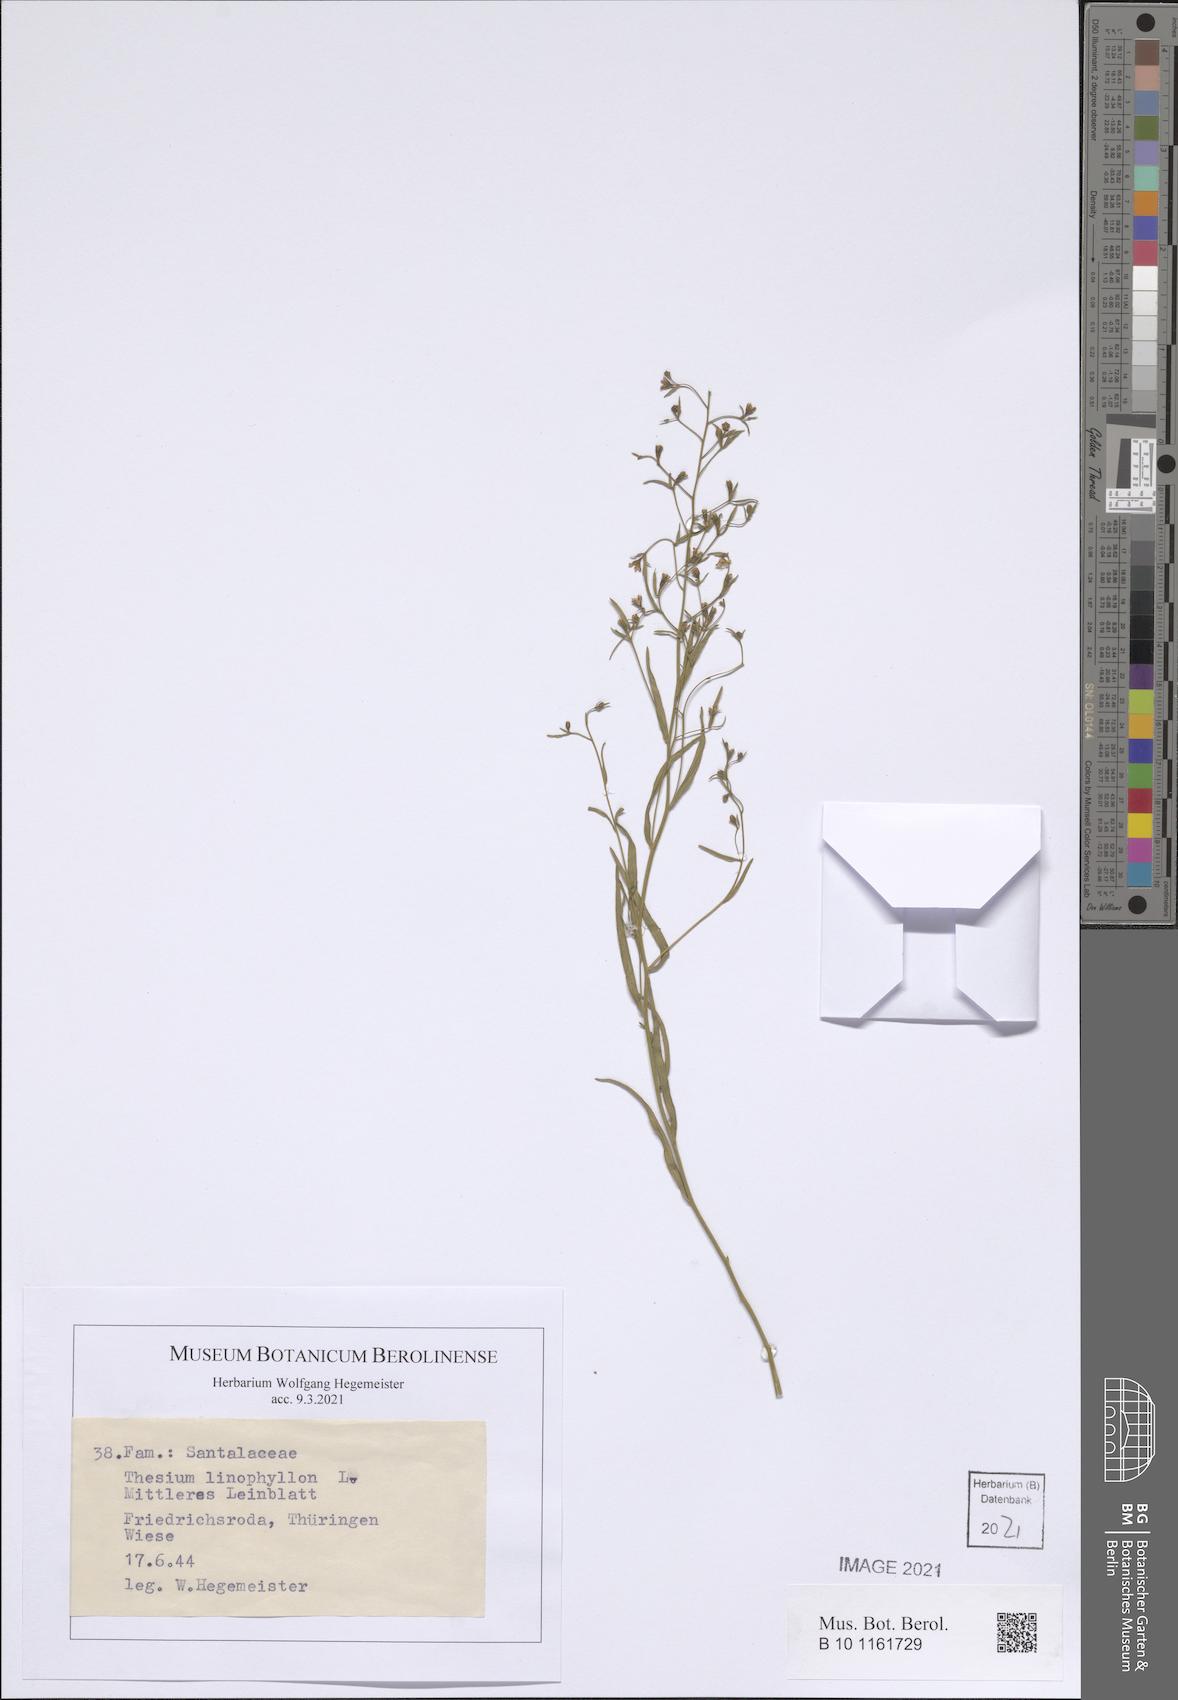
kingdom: Plantae
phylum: Tracheophyta
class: Magnoliopsida
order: Santalales
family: Thesiaceae
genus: Thesium
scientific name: Thesium linophyllon
